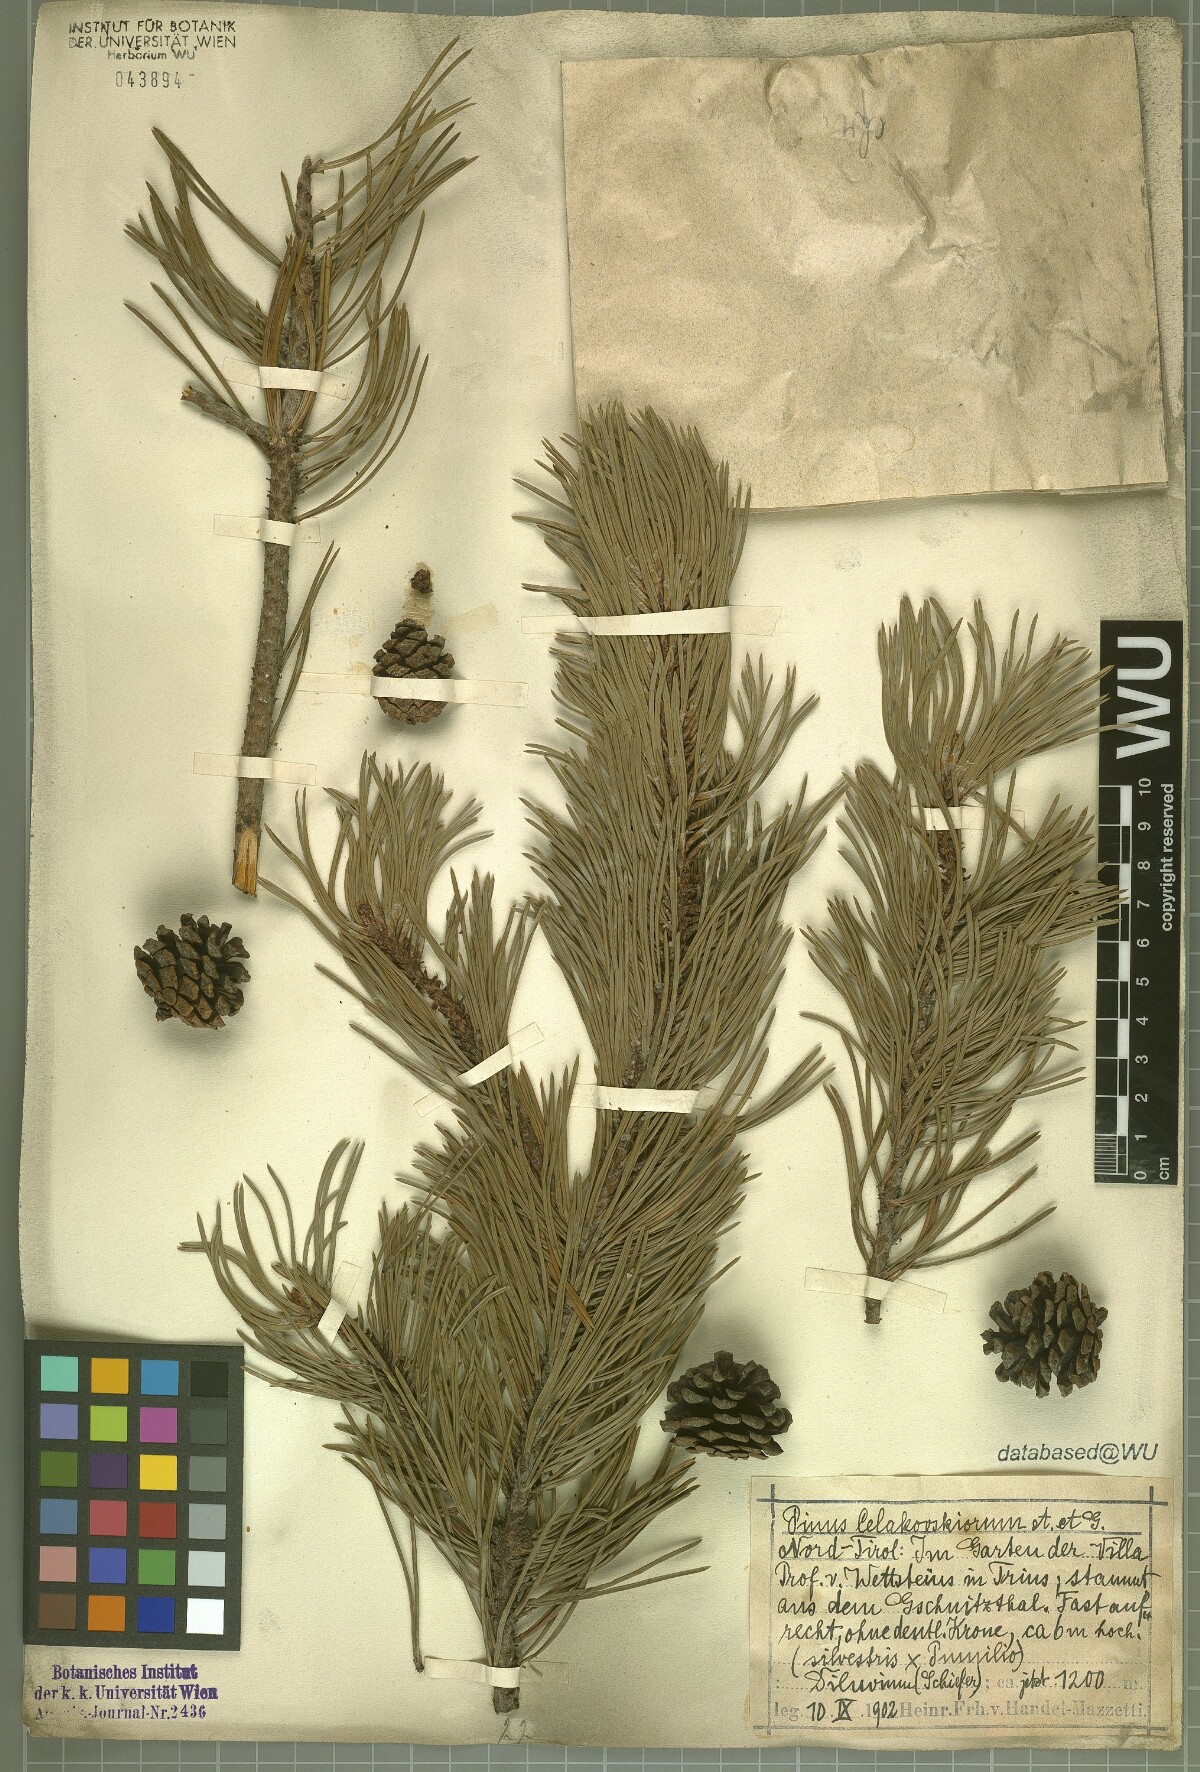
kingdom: Plantae
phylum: Tracheophyta
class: Pinopsida
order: Pinales
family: Pinaceae
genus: Pinus
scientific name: Pinus rhaetica
